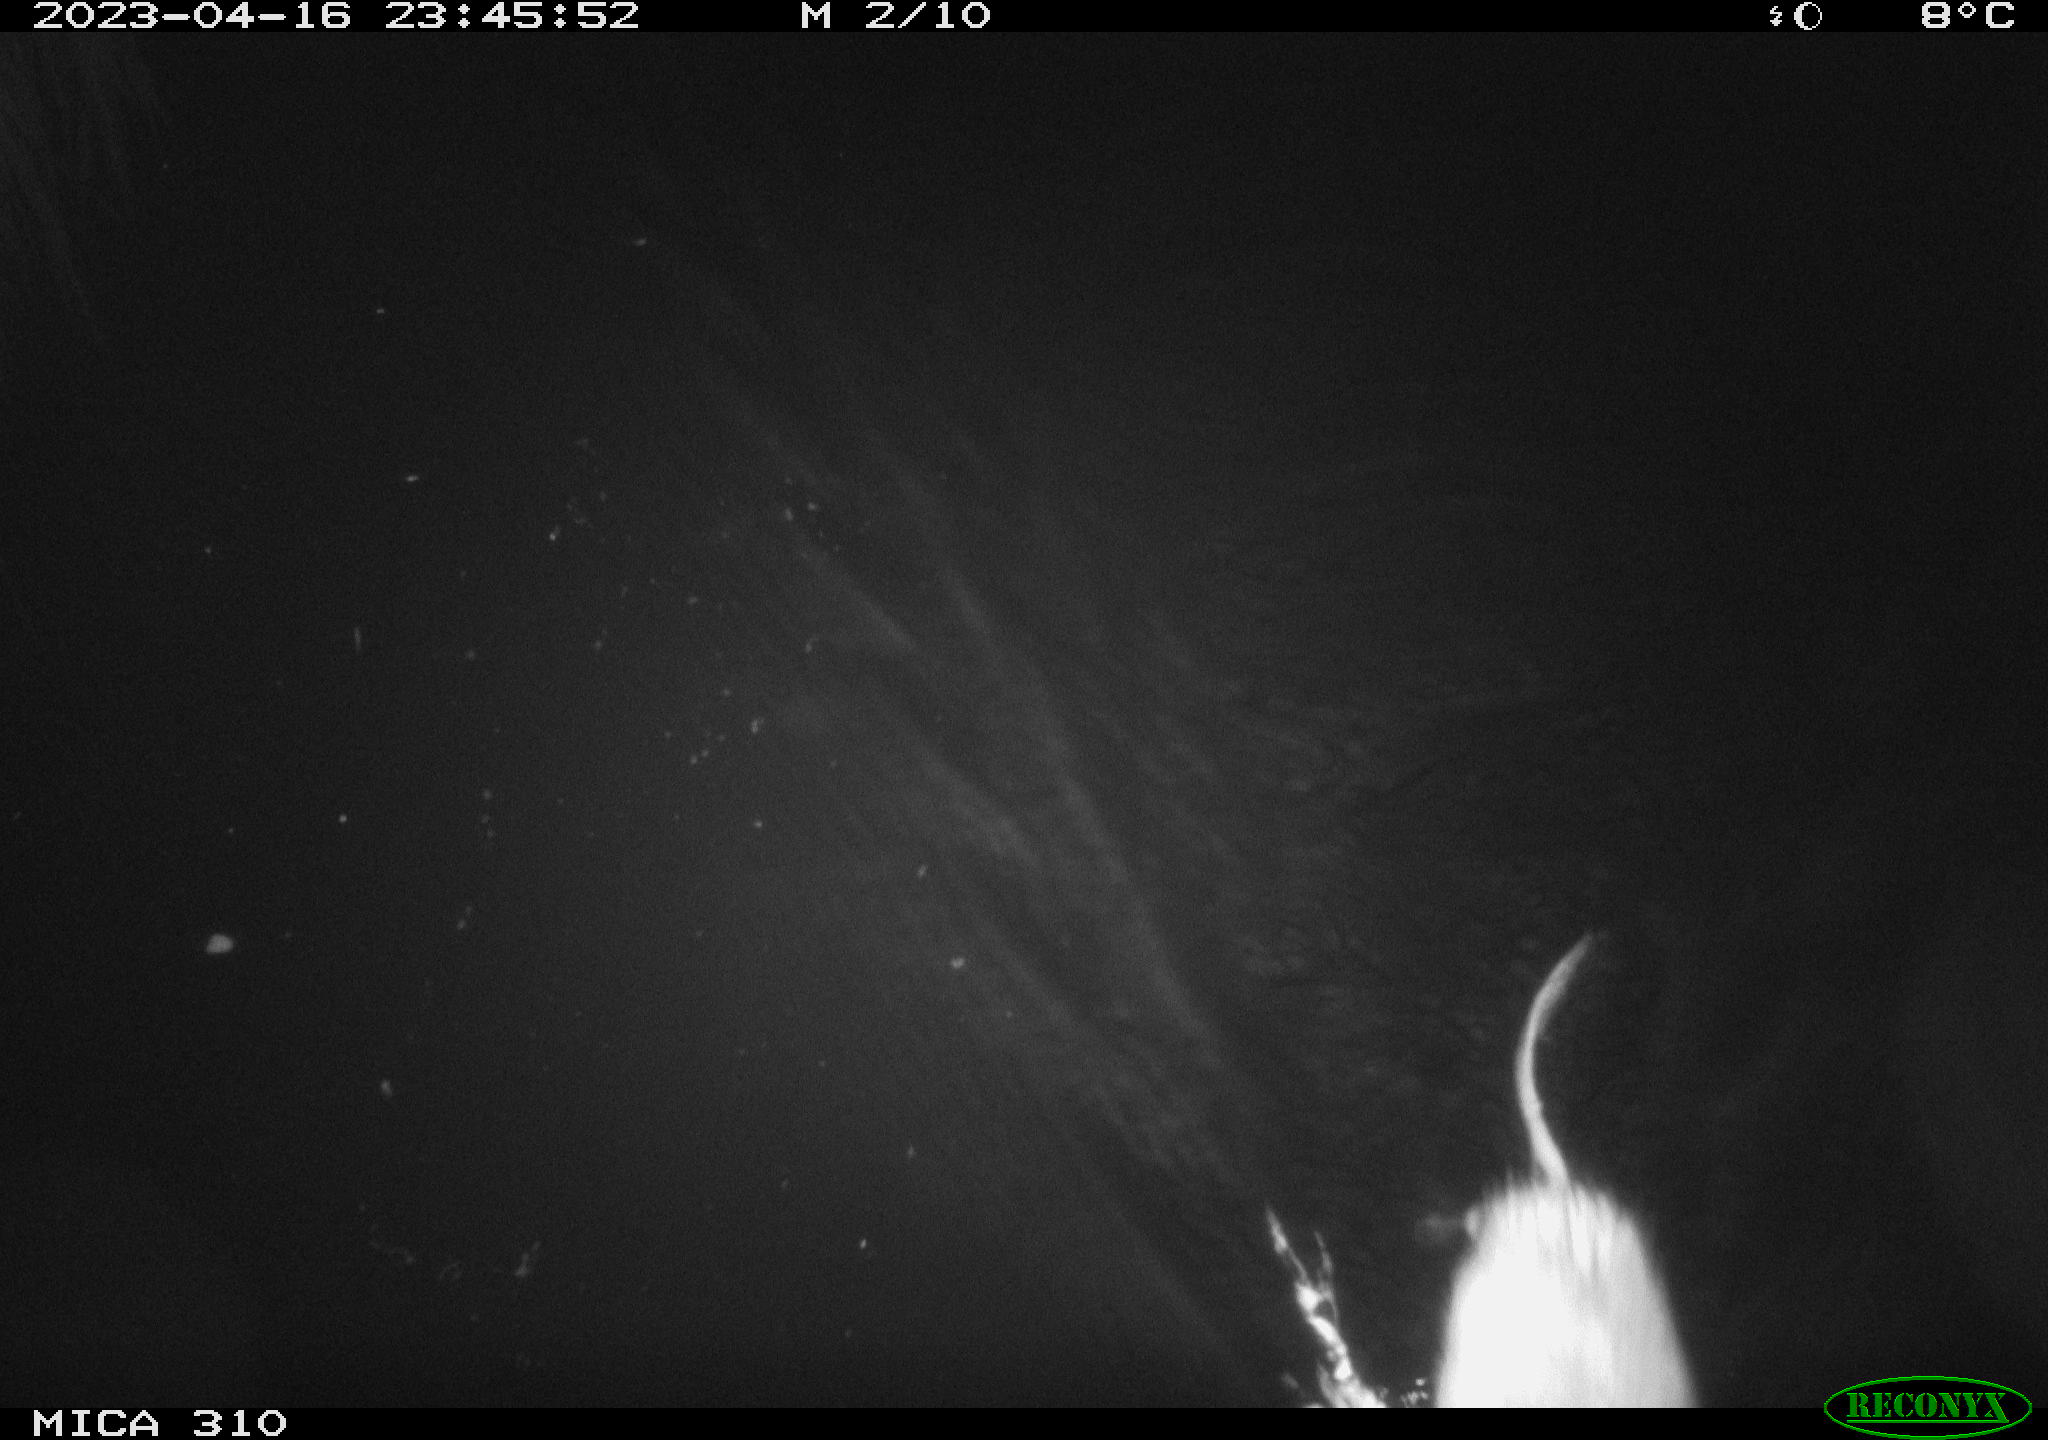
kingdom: Animalia
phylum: Chordata
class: Mammalia
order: Rodentia
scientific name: Rodentia
